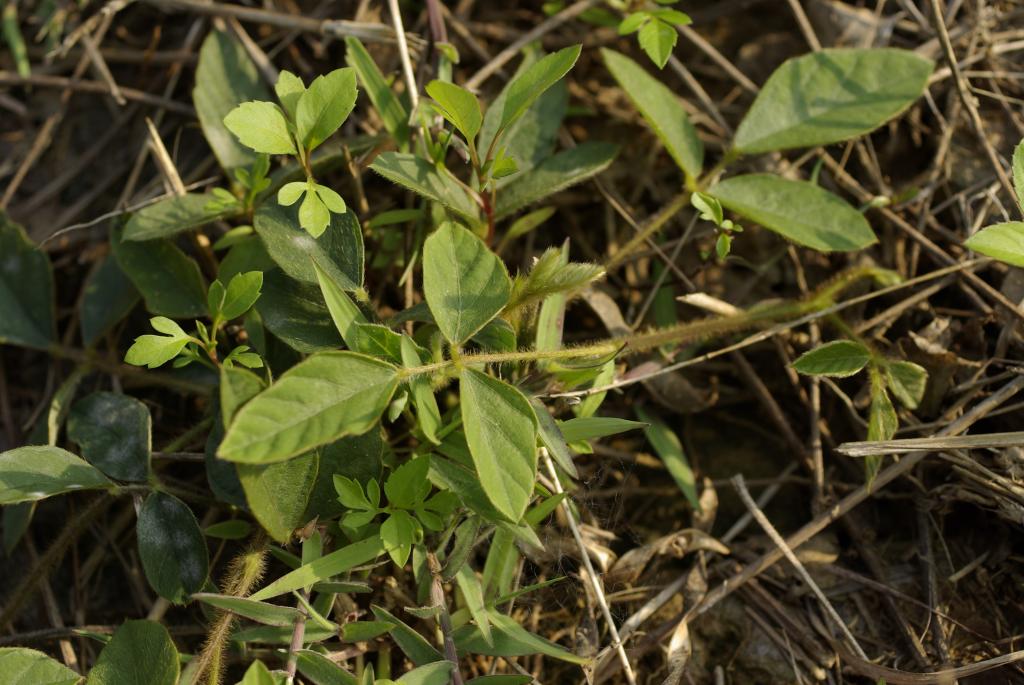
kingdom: Plantae
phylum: Tracheophyta
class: Magnoliopsida
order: Fabales
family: Fabaceae
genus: Neustanthus
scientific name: Neustanthus phaseoloides
